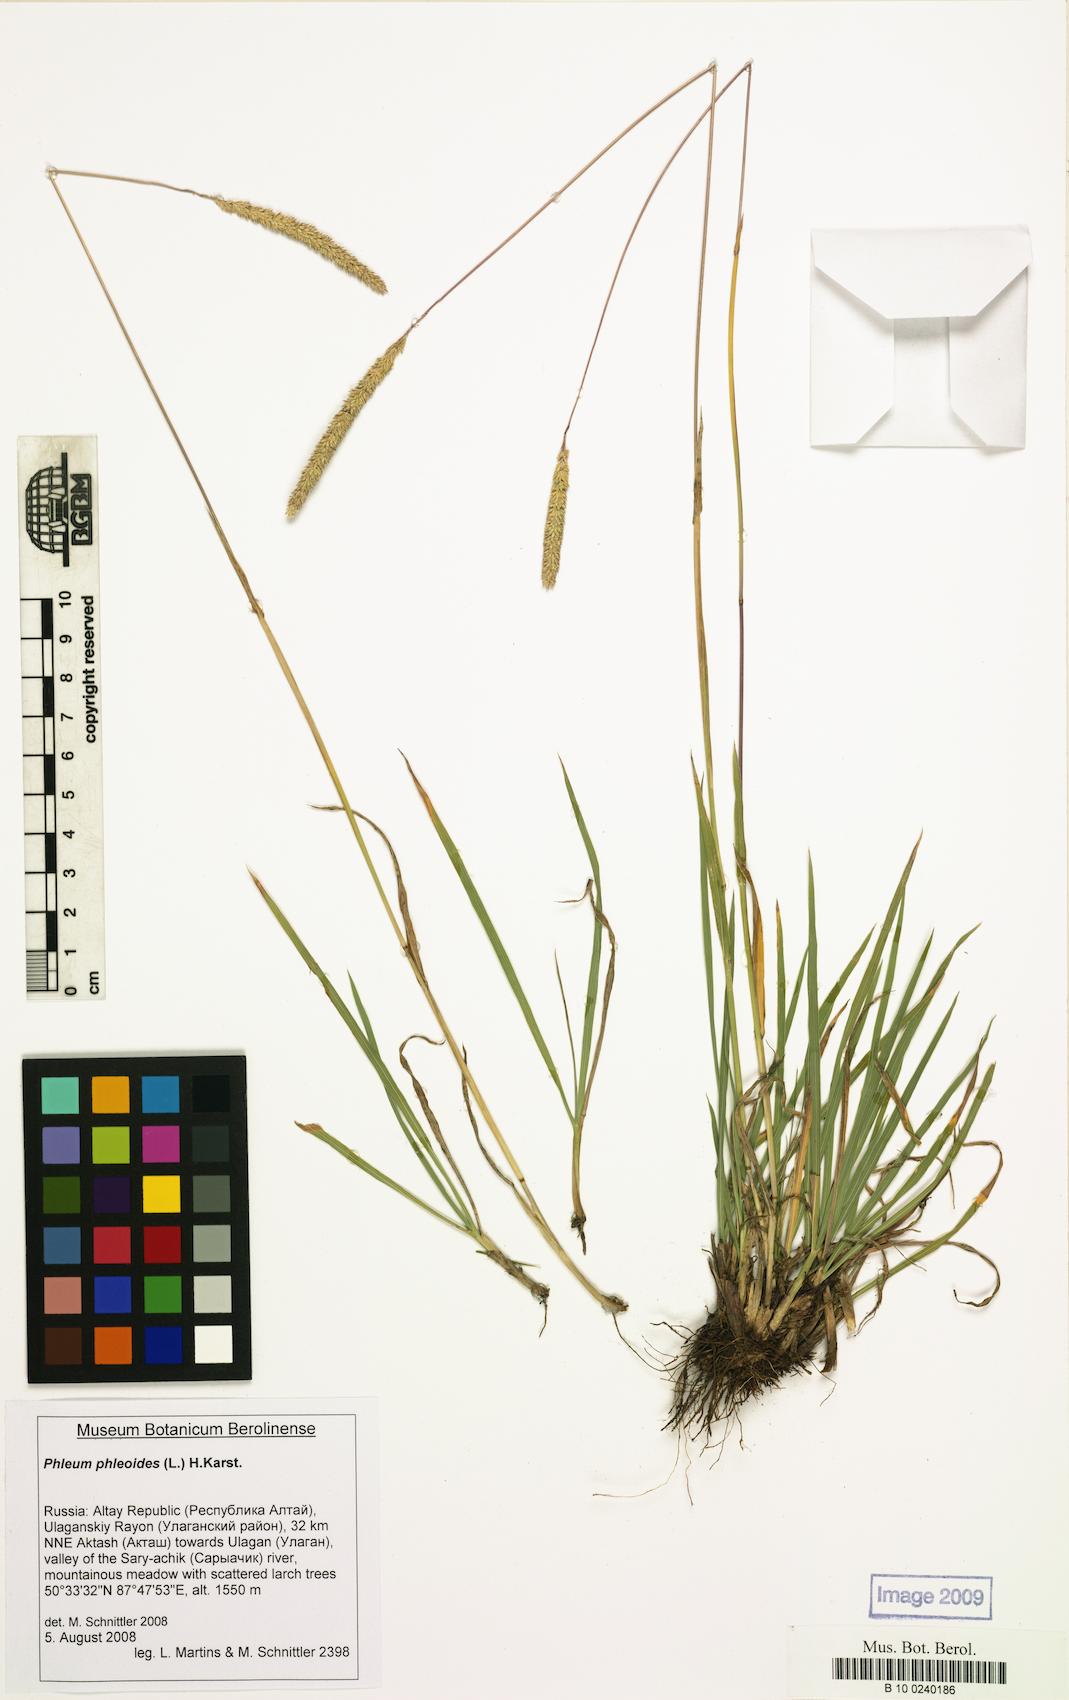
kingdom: Plantae
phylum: Tracheophyta
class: Liliopsida
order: Poales
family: Poaceae
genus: Phleum
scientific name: Phleum phleoides
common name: Purple-stem cat's-tail
